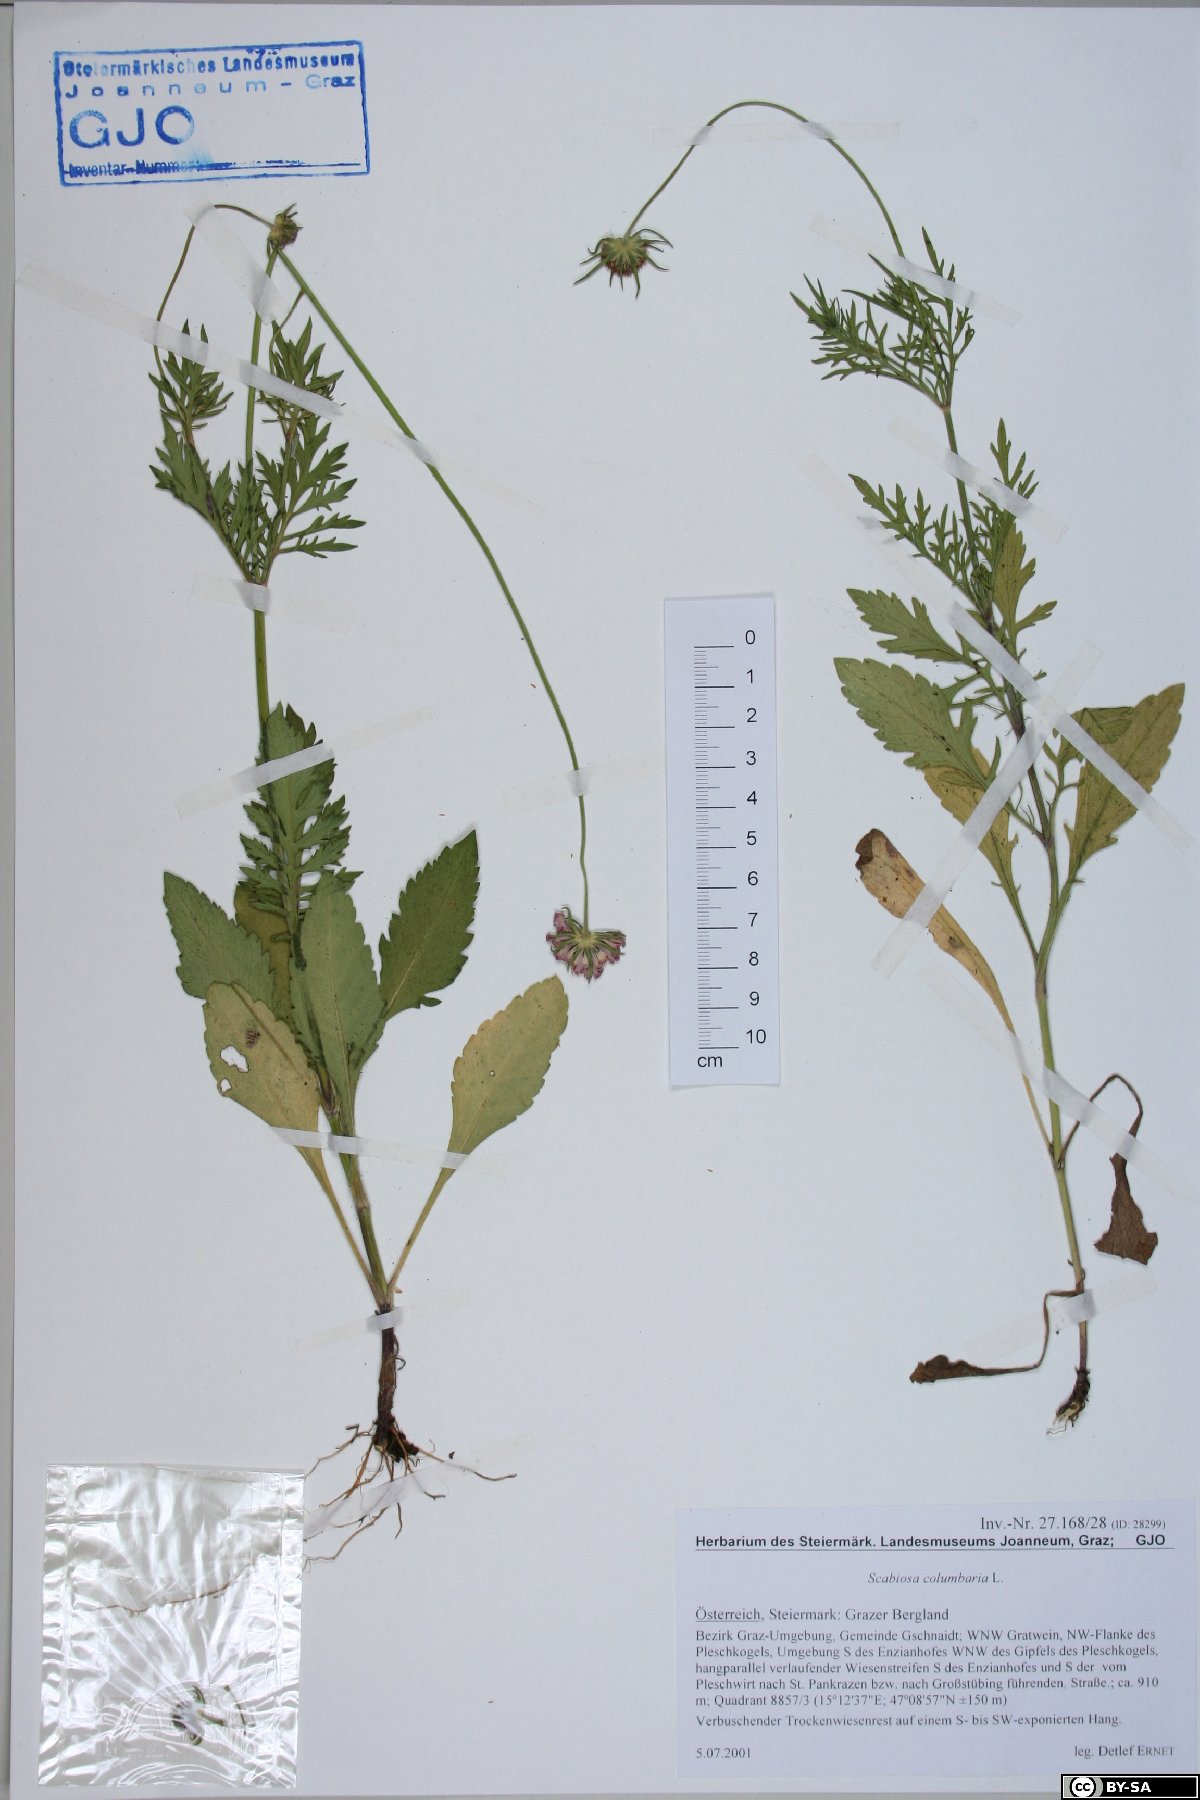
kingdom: Plantae
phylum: Tracheophyta
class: Magnoliopsida
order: Dipsacales
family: Caprifoliaceae
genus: Scabiosa
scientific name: Scabiosa columbaria
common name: Small scabious
